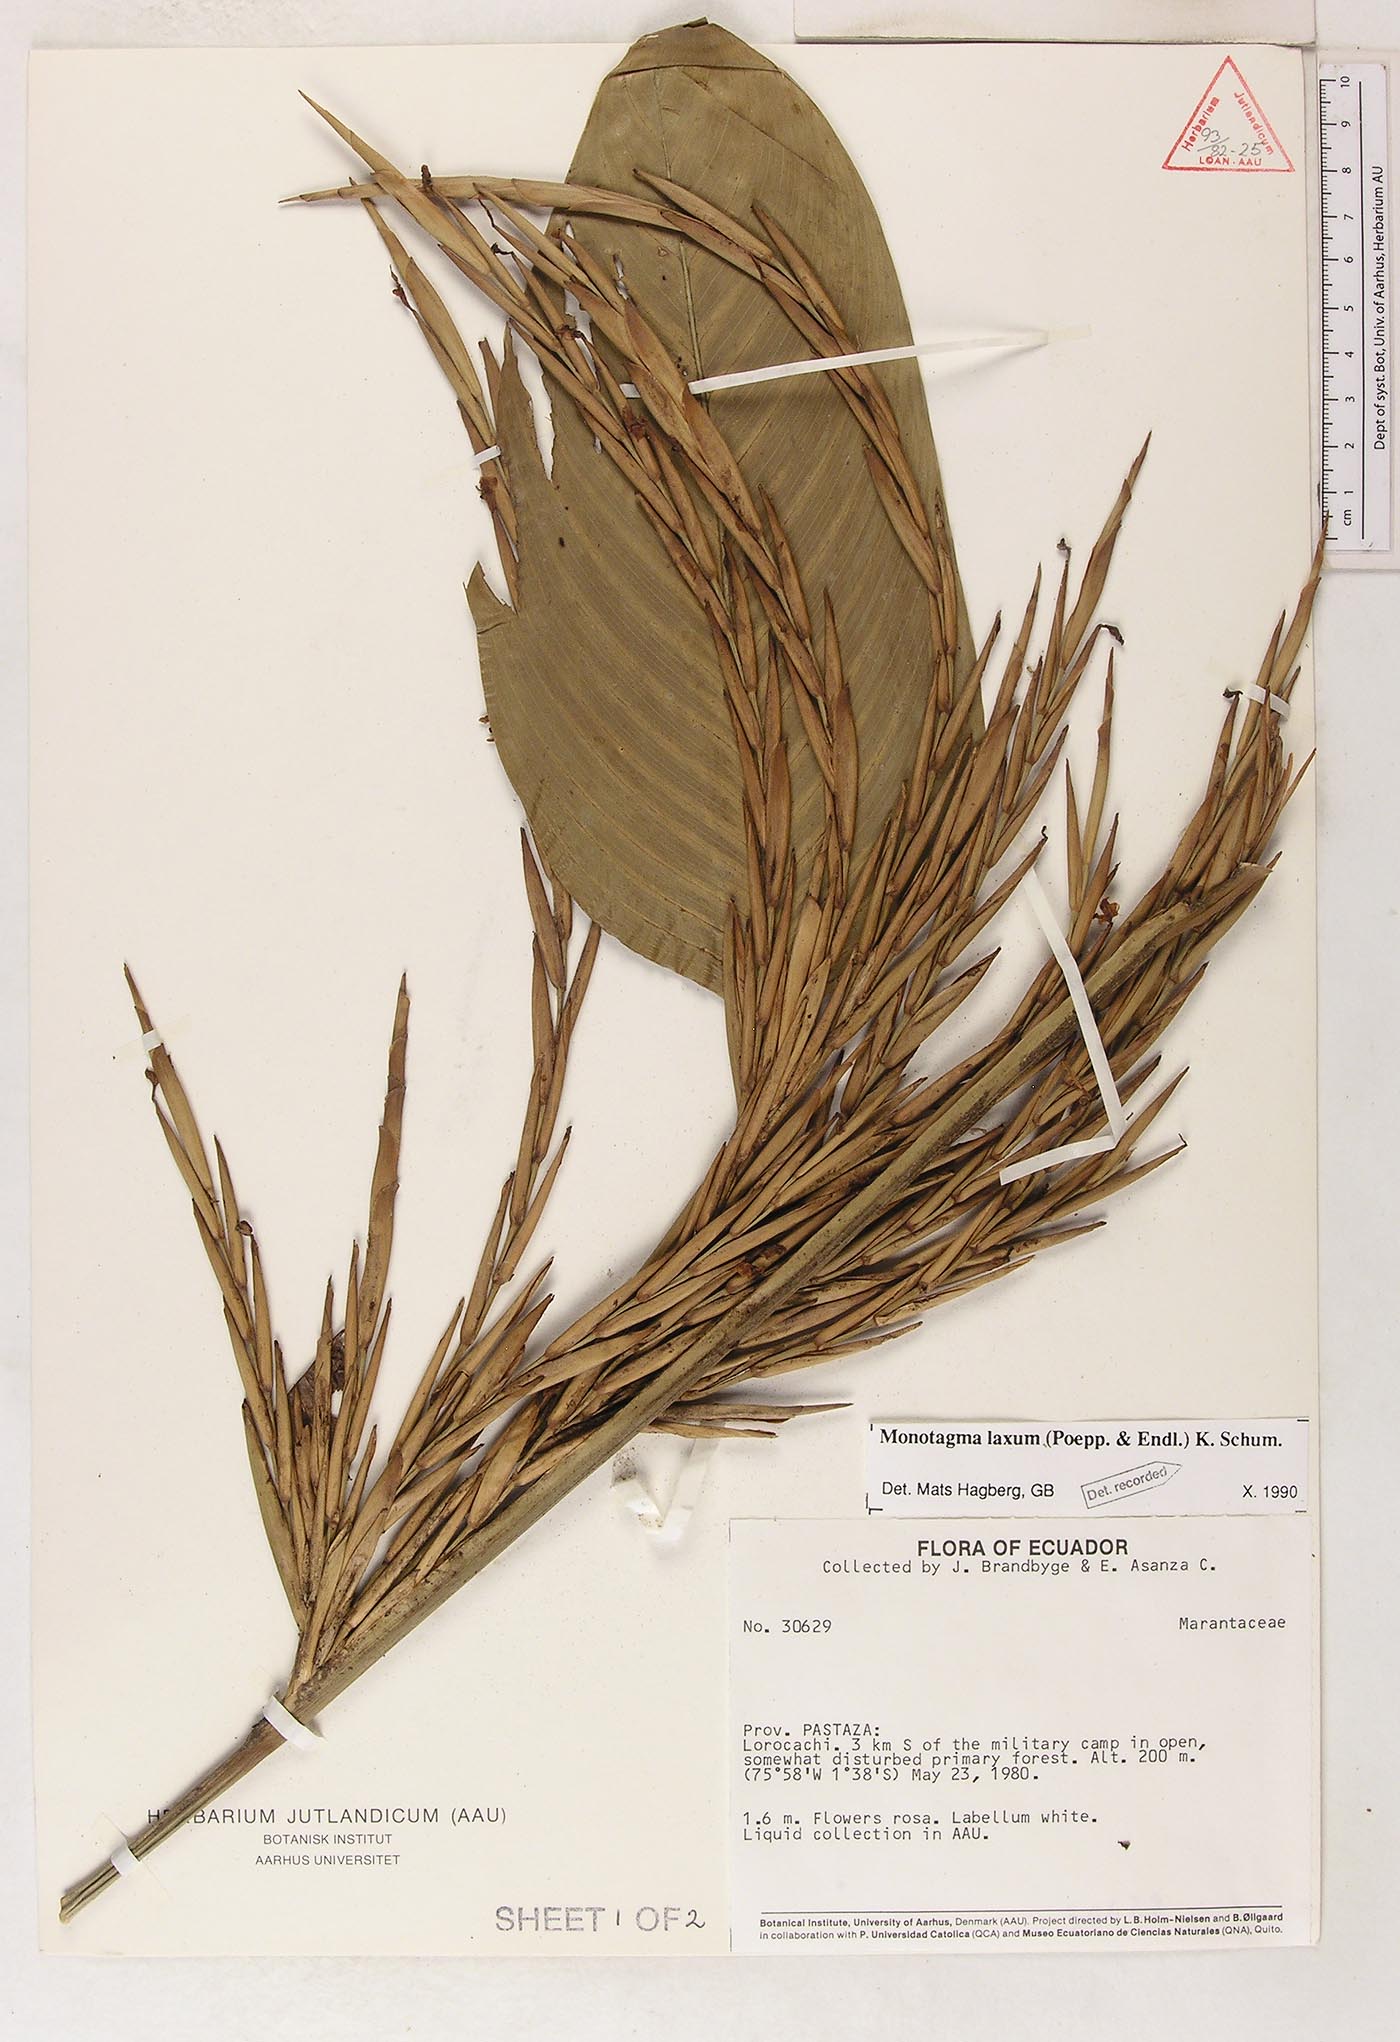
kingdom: Plantae
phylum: Tracheophyta
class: Liliopsida
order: Zingiberales
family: Marantaceae
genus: Monotagma
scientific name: Monotagma laxum
